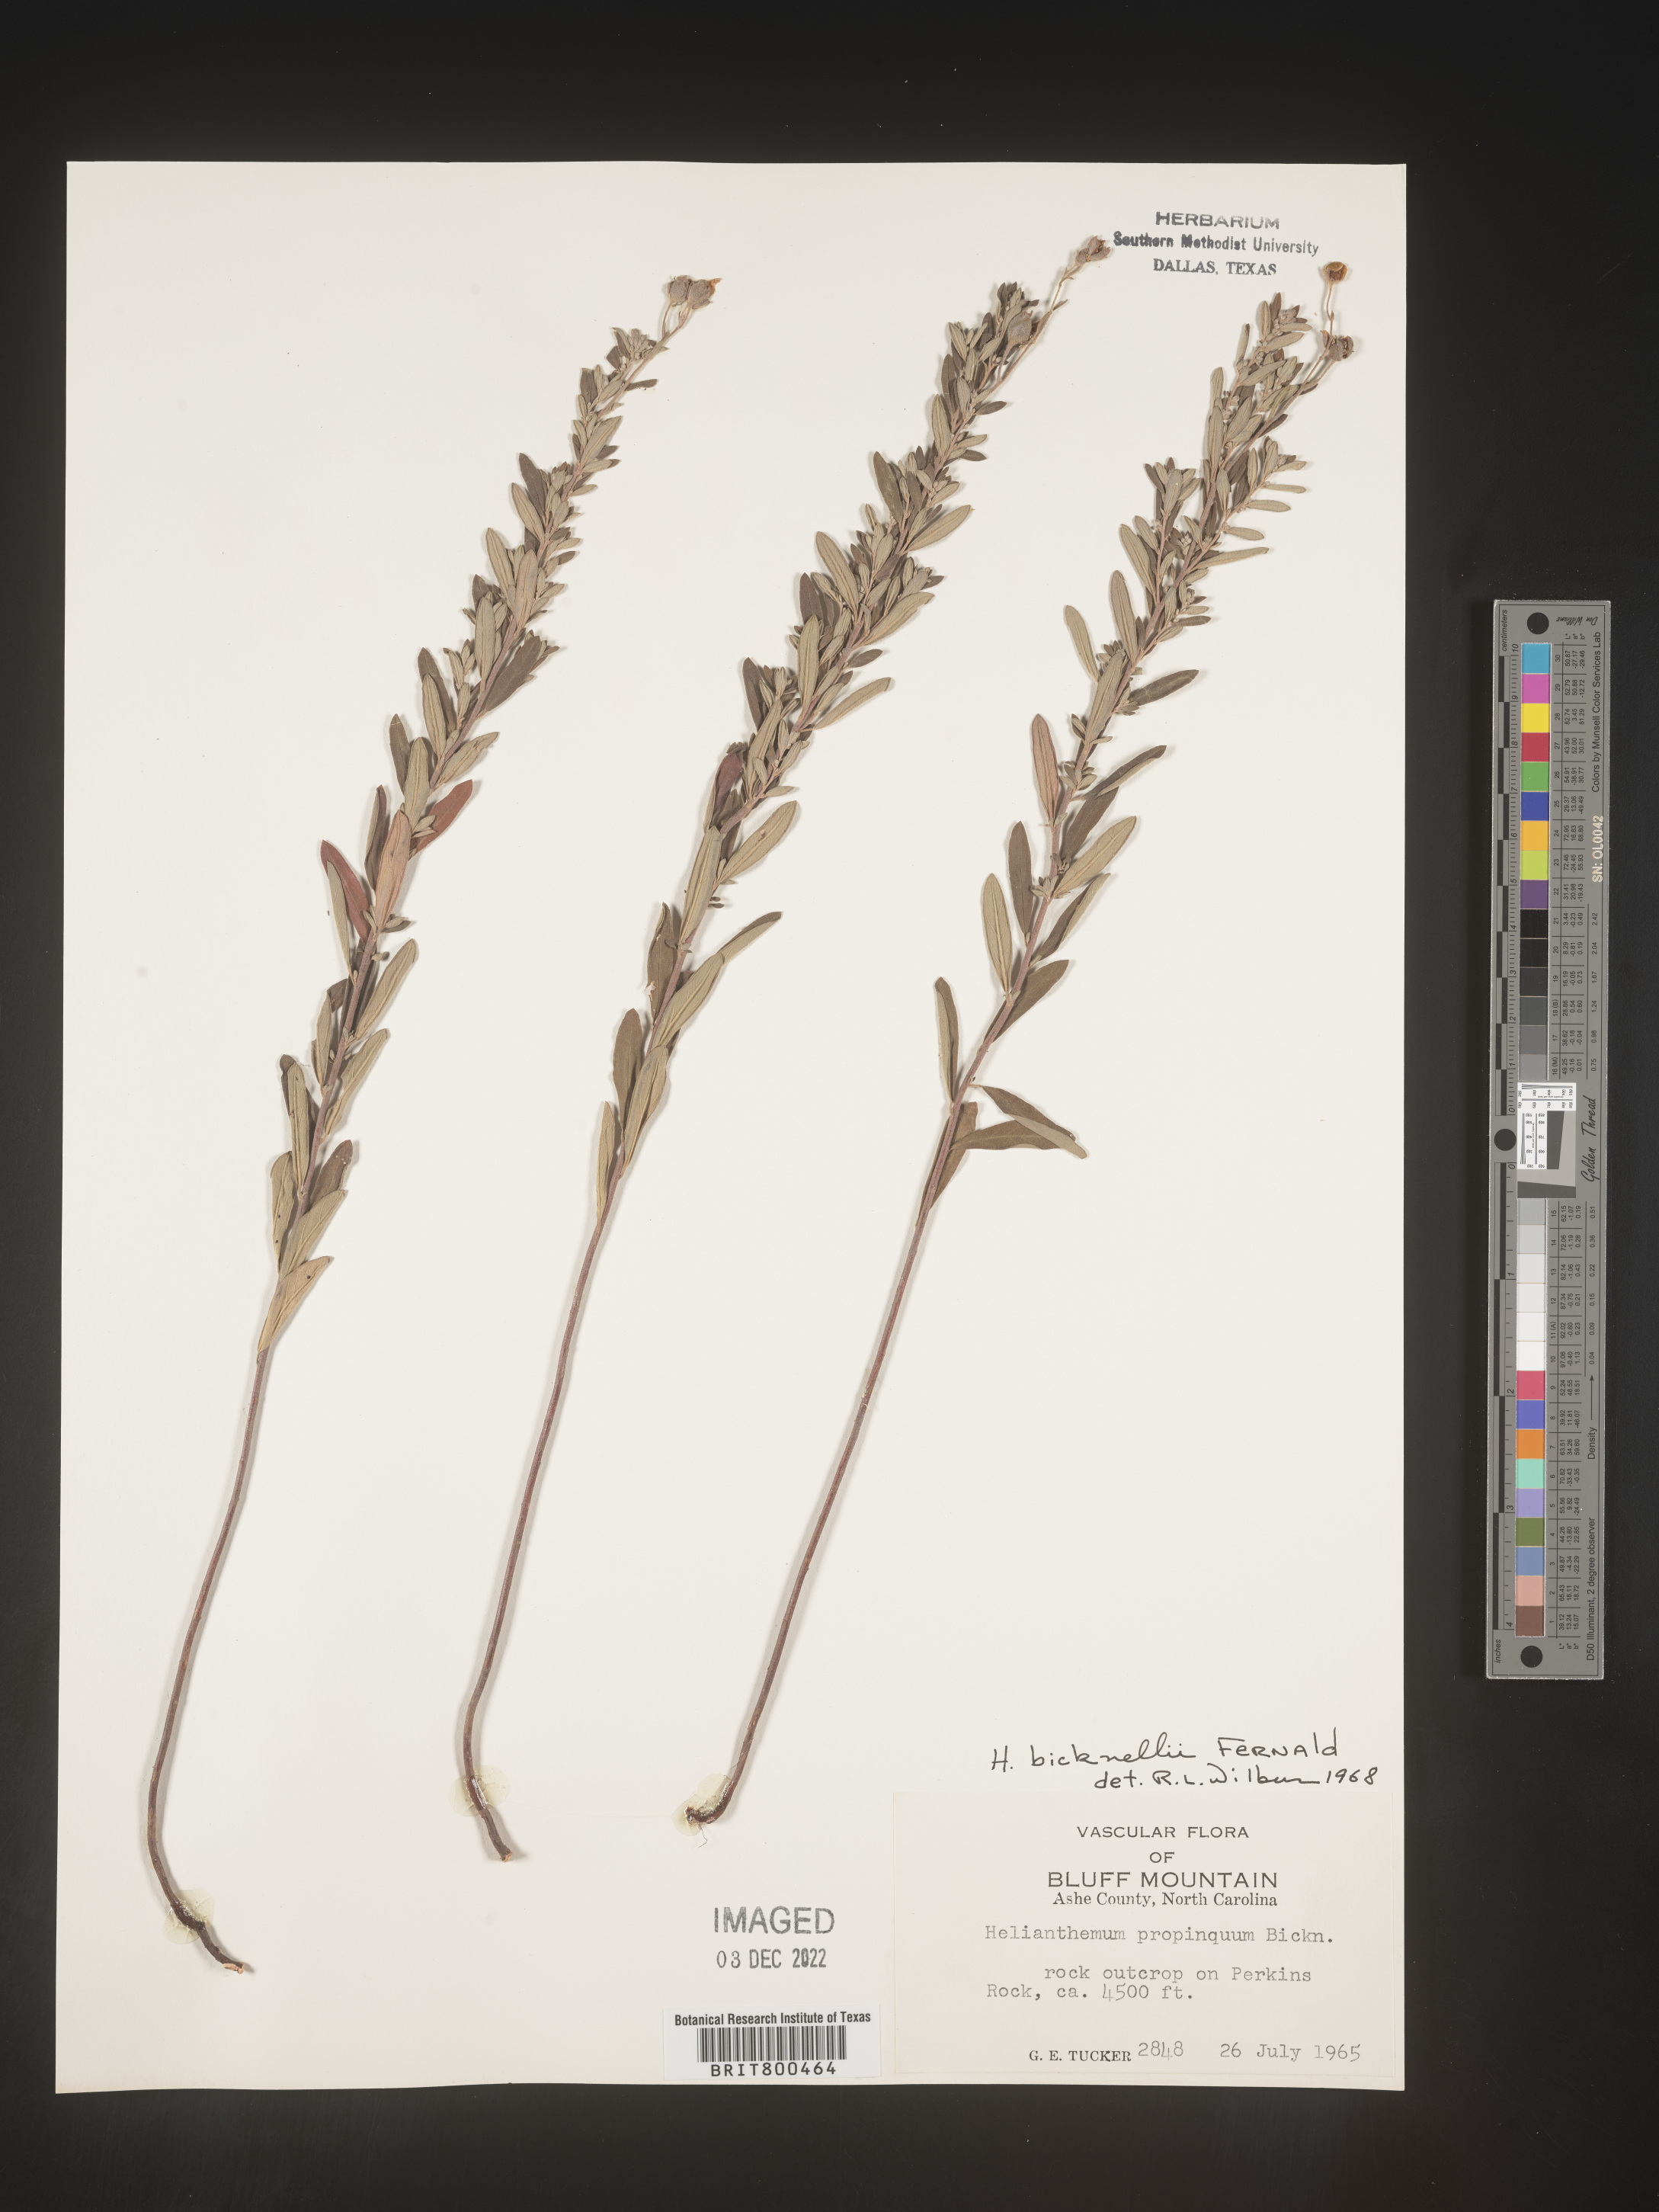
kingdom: Plantae
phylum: Tracheophyta
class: Magnoliopsida
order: Malvales
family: Cistaceae
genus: Helianthemum
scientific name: Helianthemum
